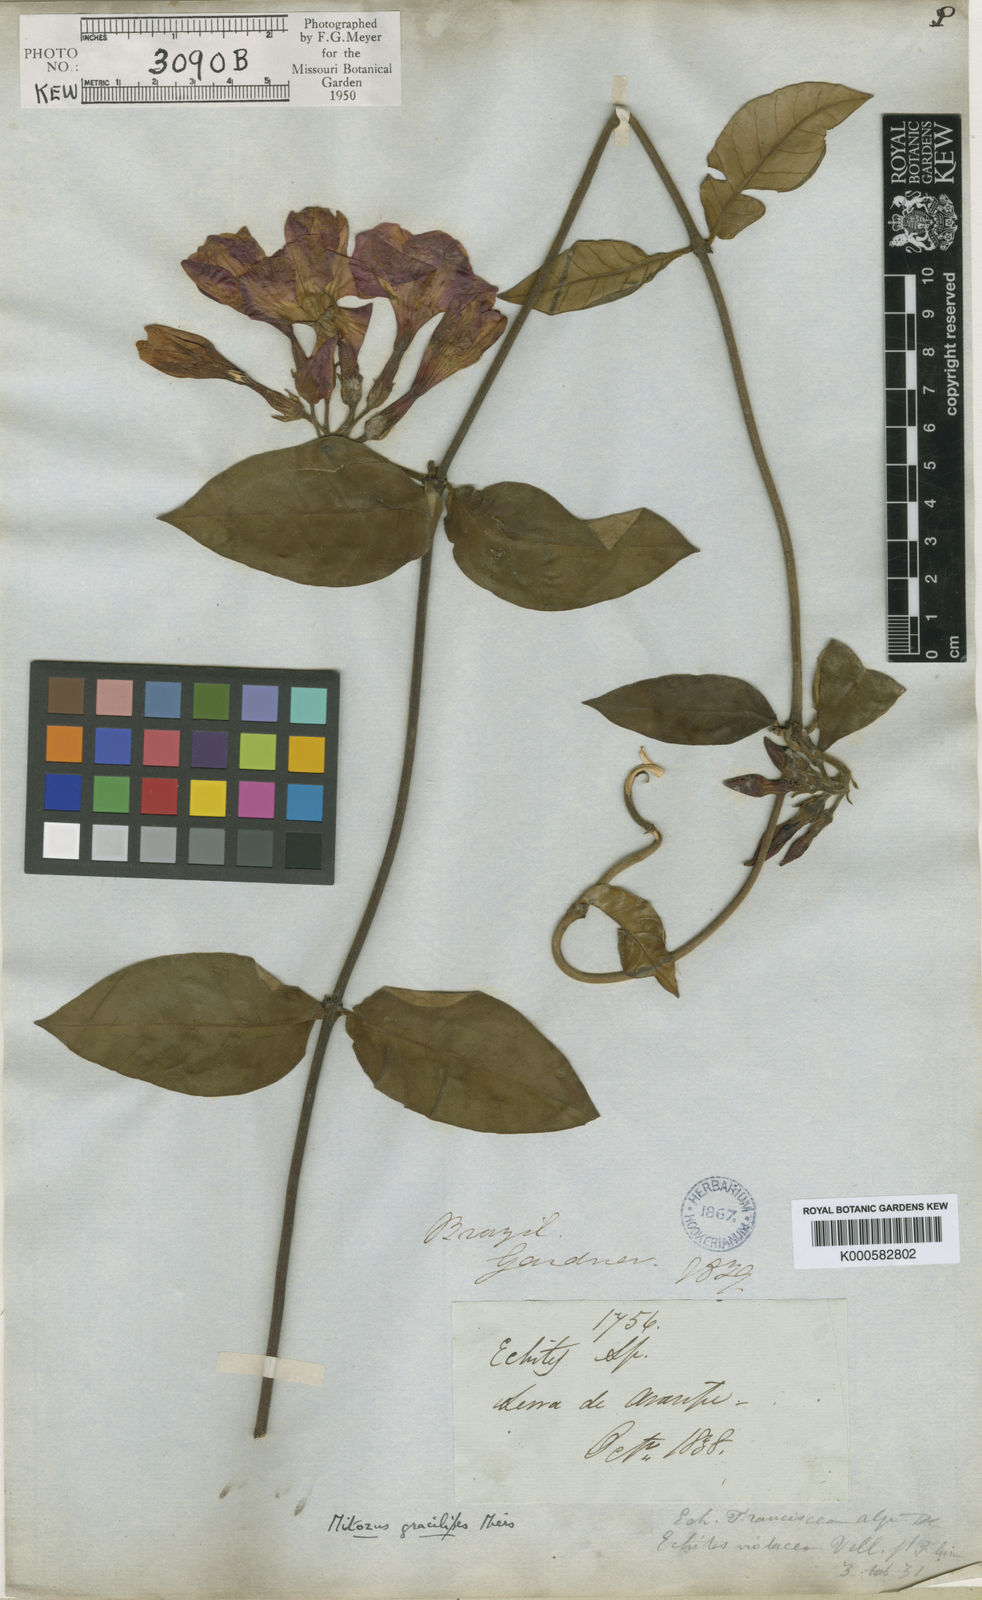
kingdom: Plantae
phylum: Tracheophyta
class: Magnoliopsida
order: Gentianales
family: Apocynaceae
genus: Temnadenia
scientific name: Temnadenia violacea
